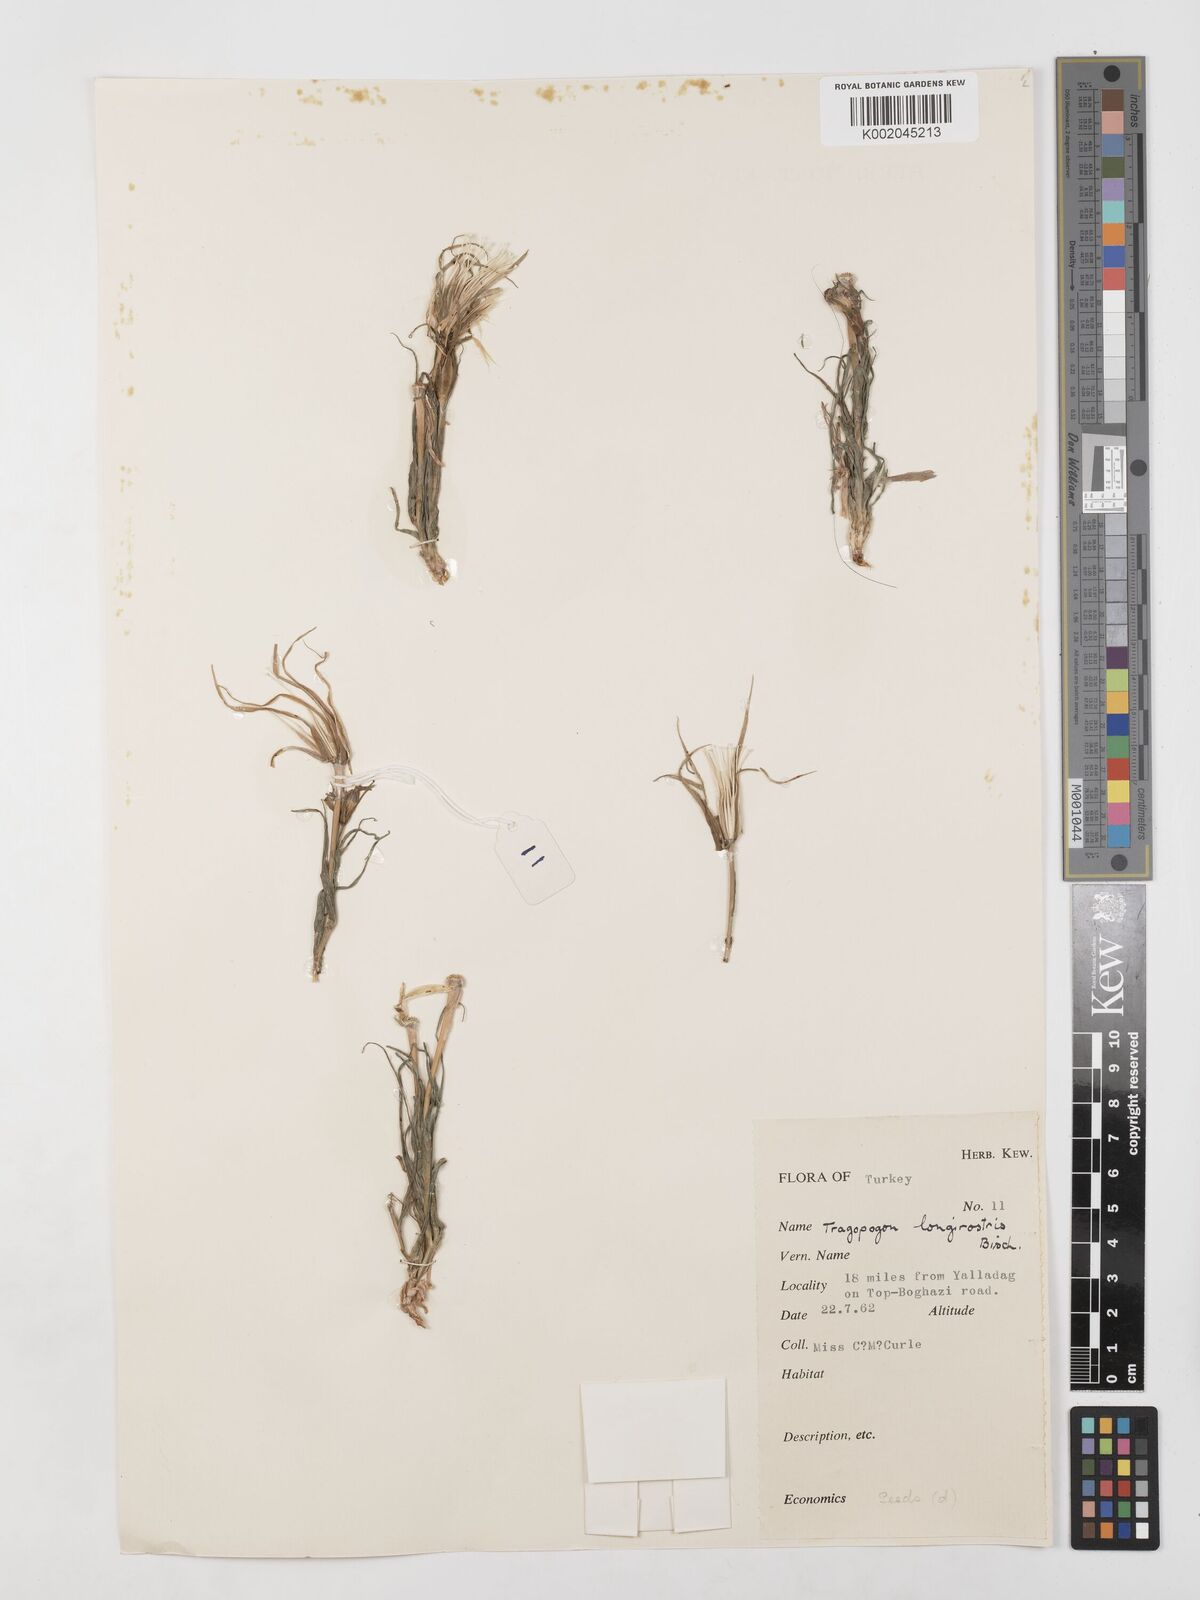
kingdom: Plantae
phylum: Tracheophyta
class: Magnoliopsida
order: Asterales
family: Asteraceae
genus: Tragopogon
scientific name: Tragopogon coelesyriacus
